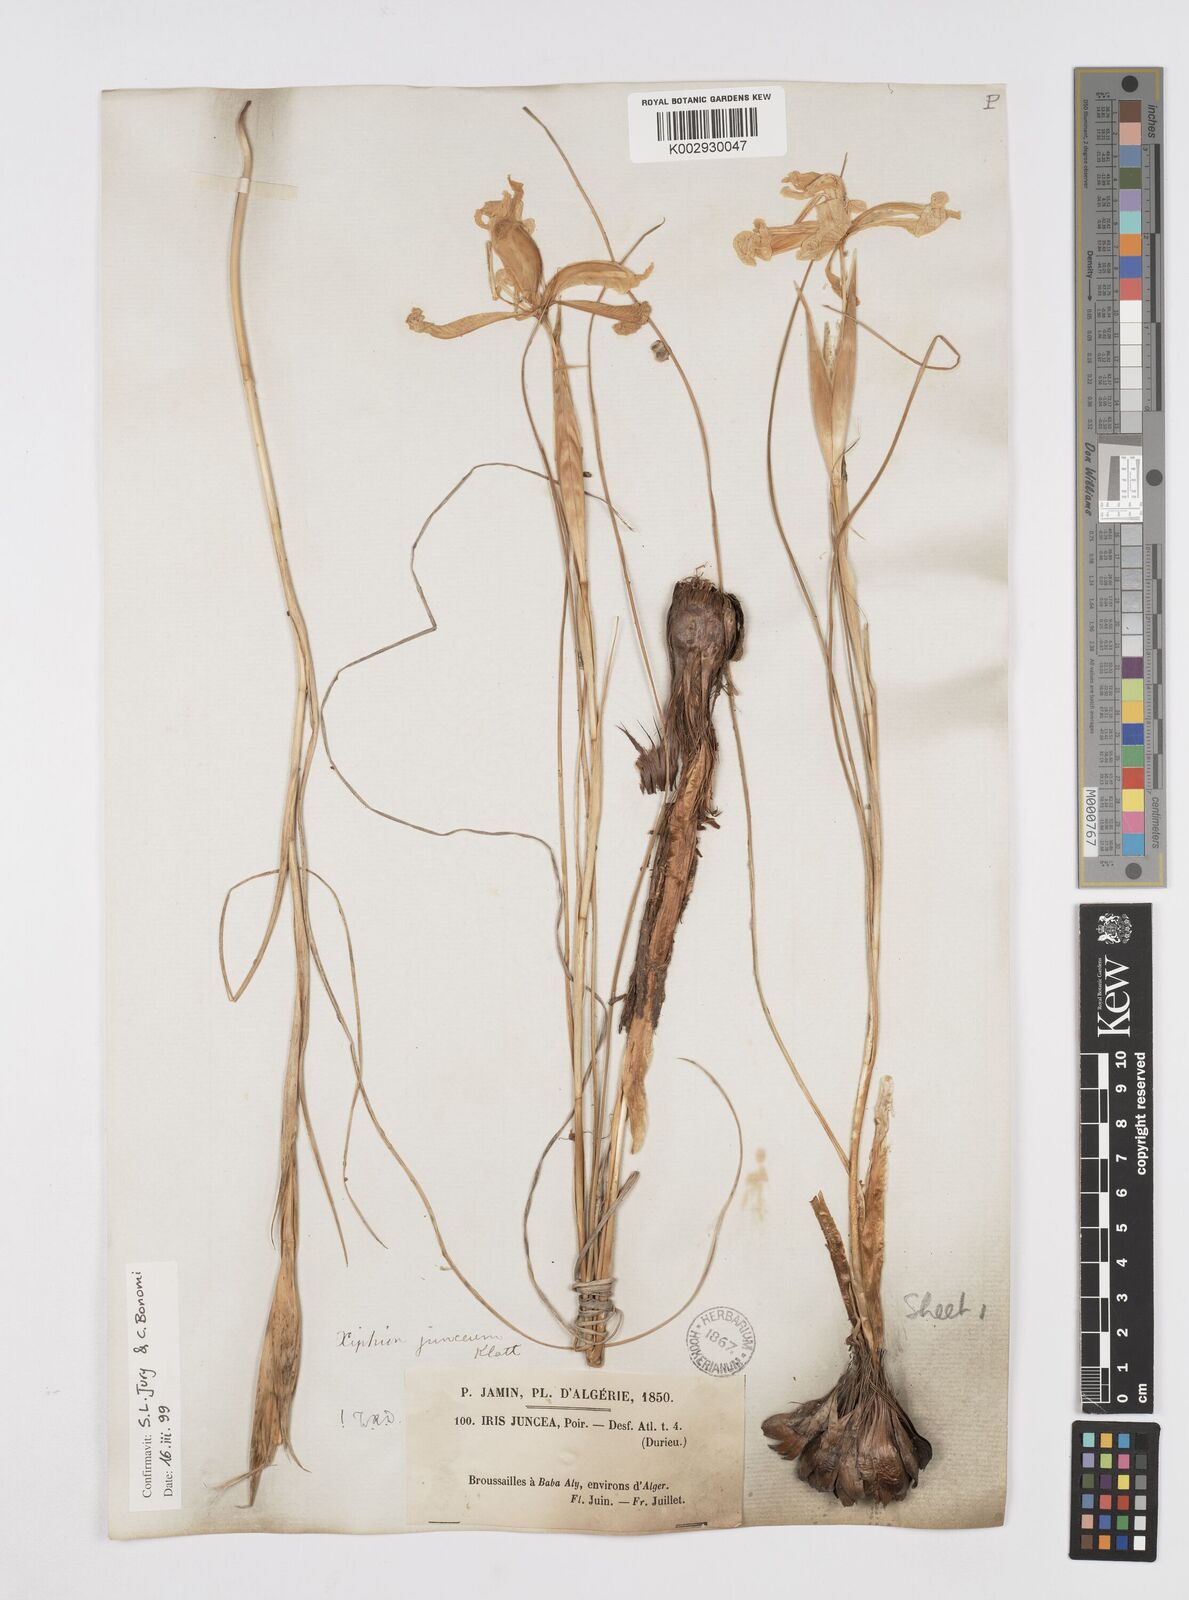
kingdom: Plantae
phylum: Tracheophyta
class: Liliopsida
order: Asparagales
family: Iridaceae
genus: Iris
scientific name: Iris juncea
